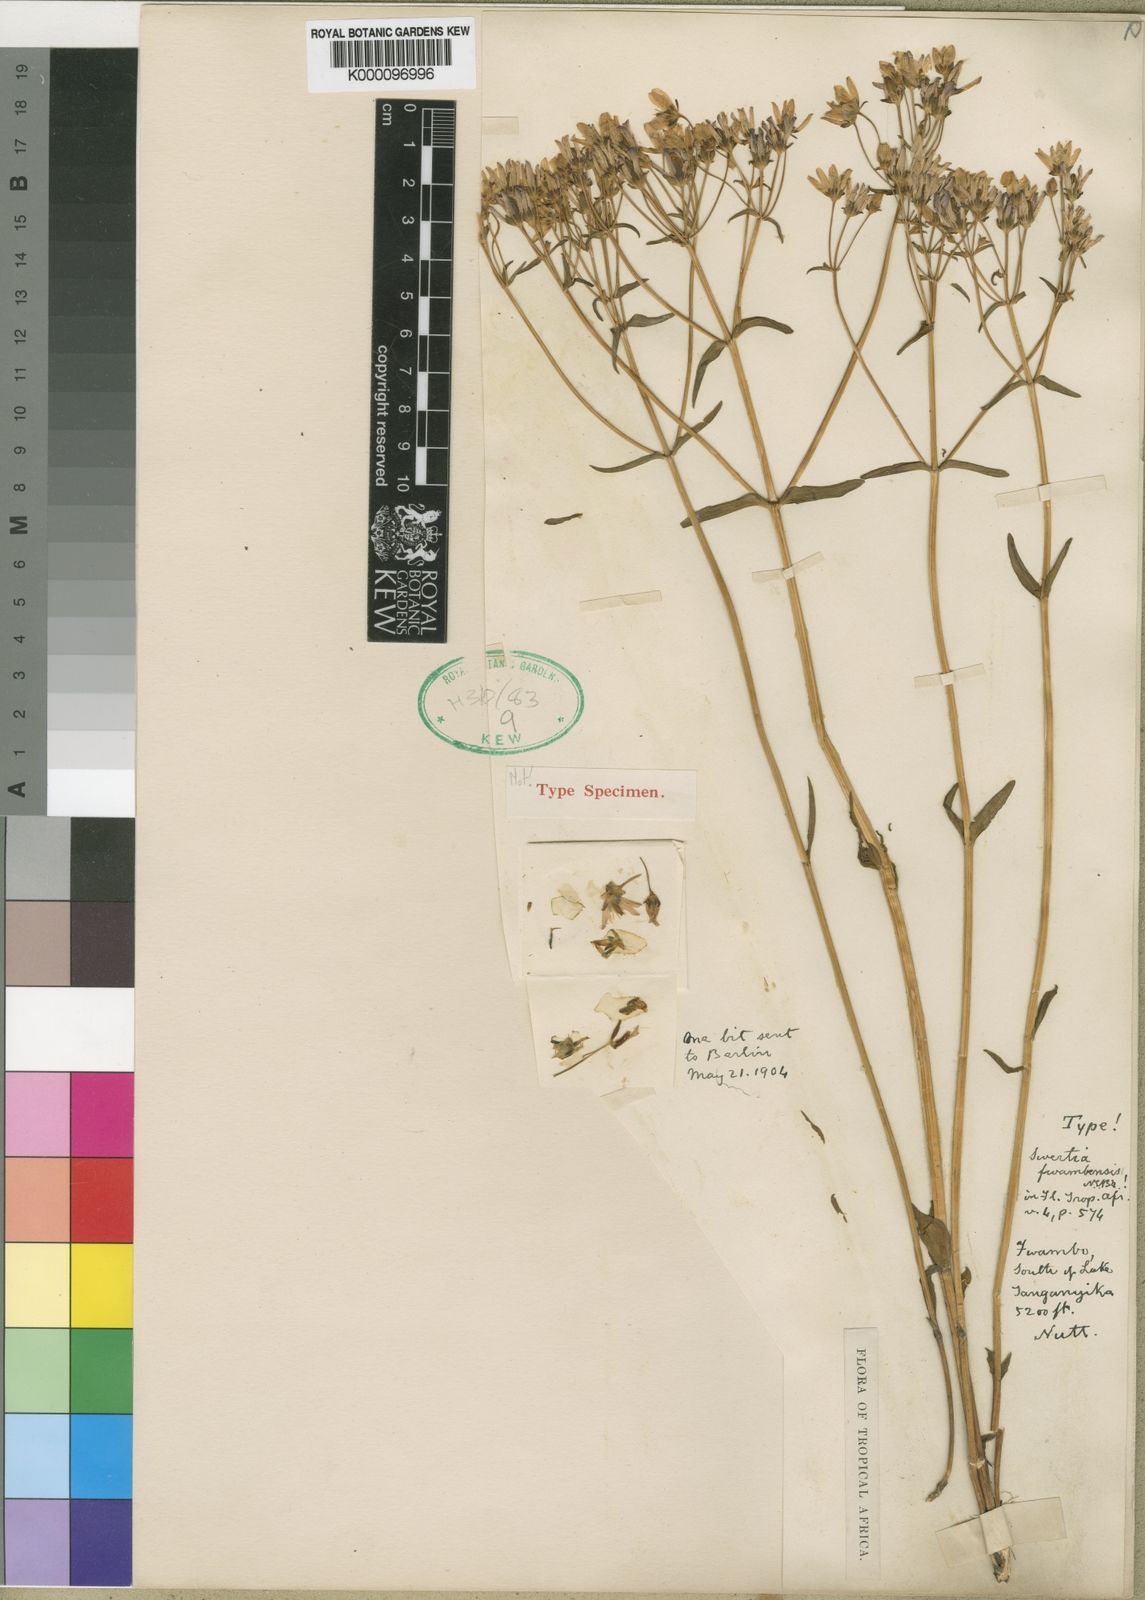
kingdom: Plantae
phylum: Tracheophyta
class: Magnoliopsida
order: Gentianales
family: Gentianaceae
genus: Swertia
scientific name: Swertia quartiniana
